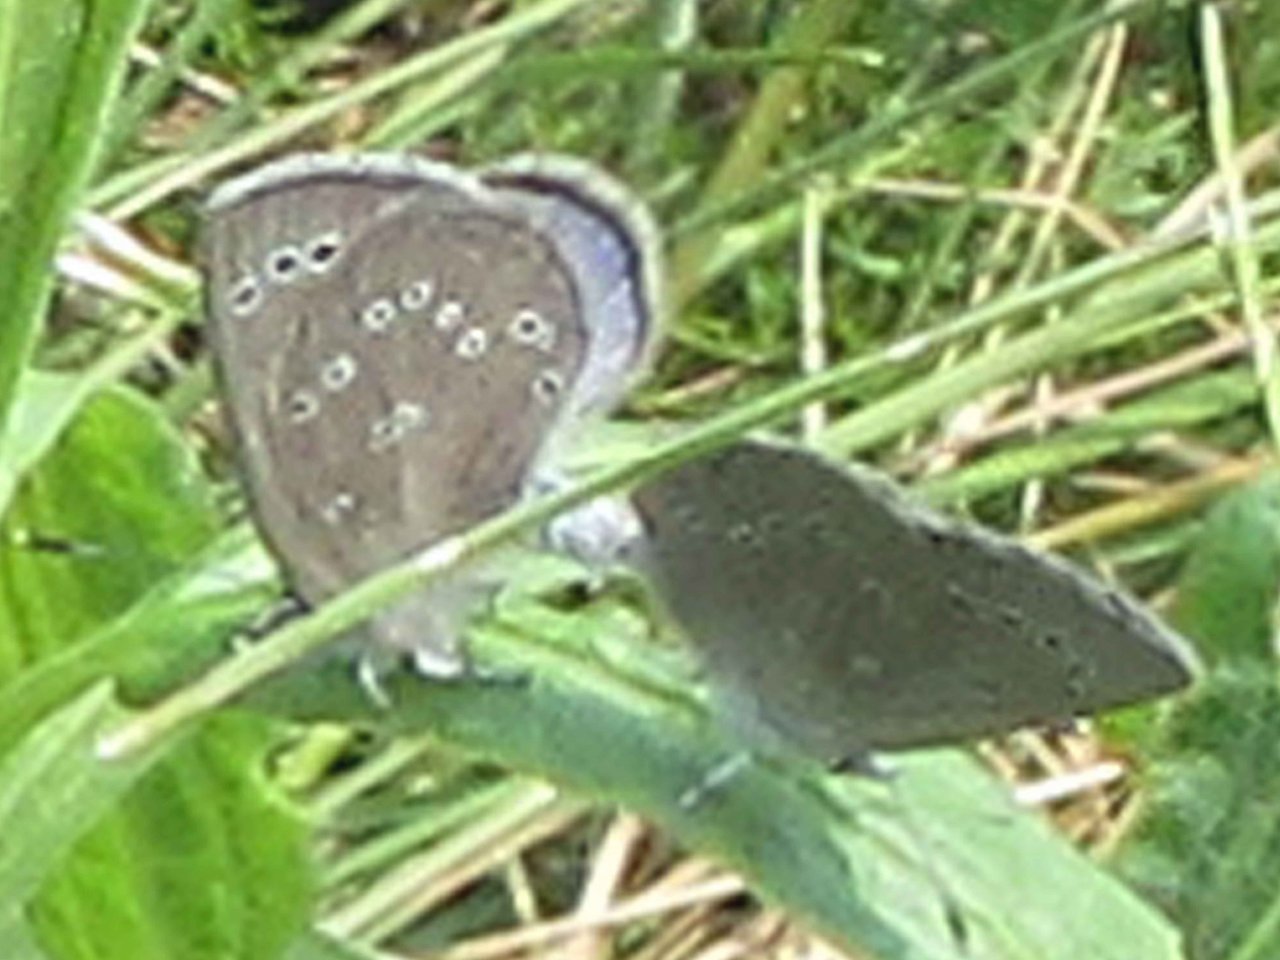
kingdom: Animalia
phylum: Arthropoda
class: Insecta
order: Lepidoptera
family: Lycaenidae
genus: Glaucopsyche
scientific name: Glaucopsyche lygdamus
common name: Silvery Blue
